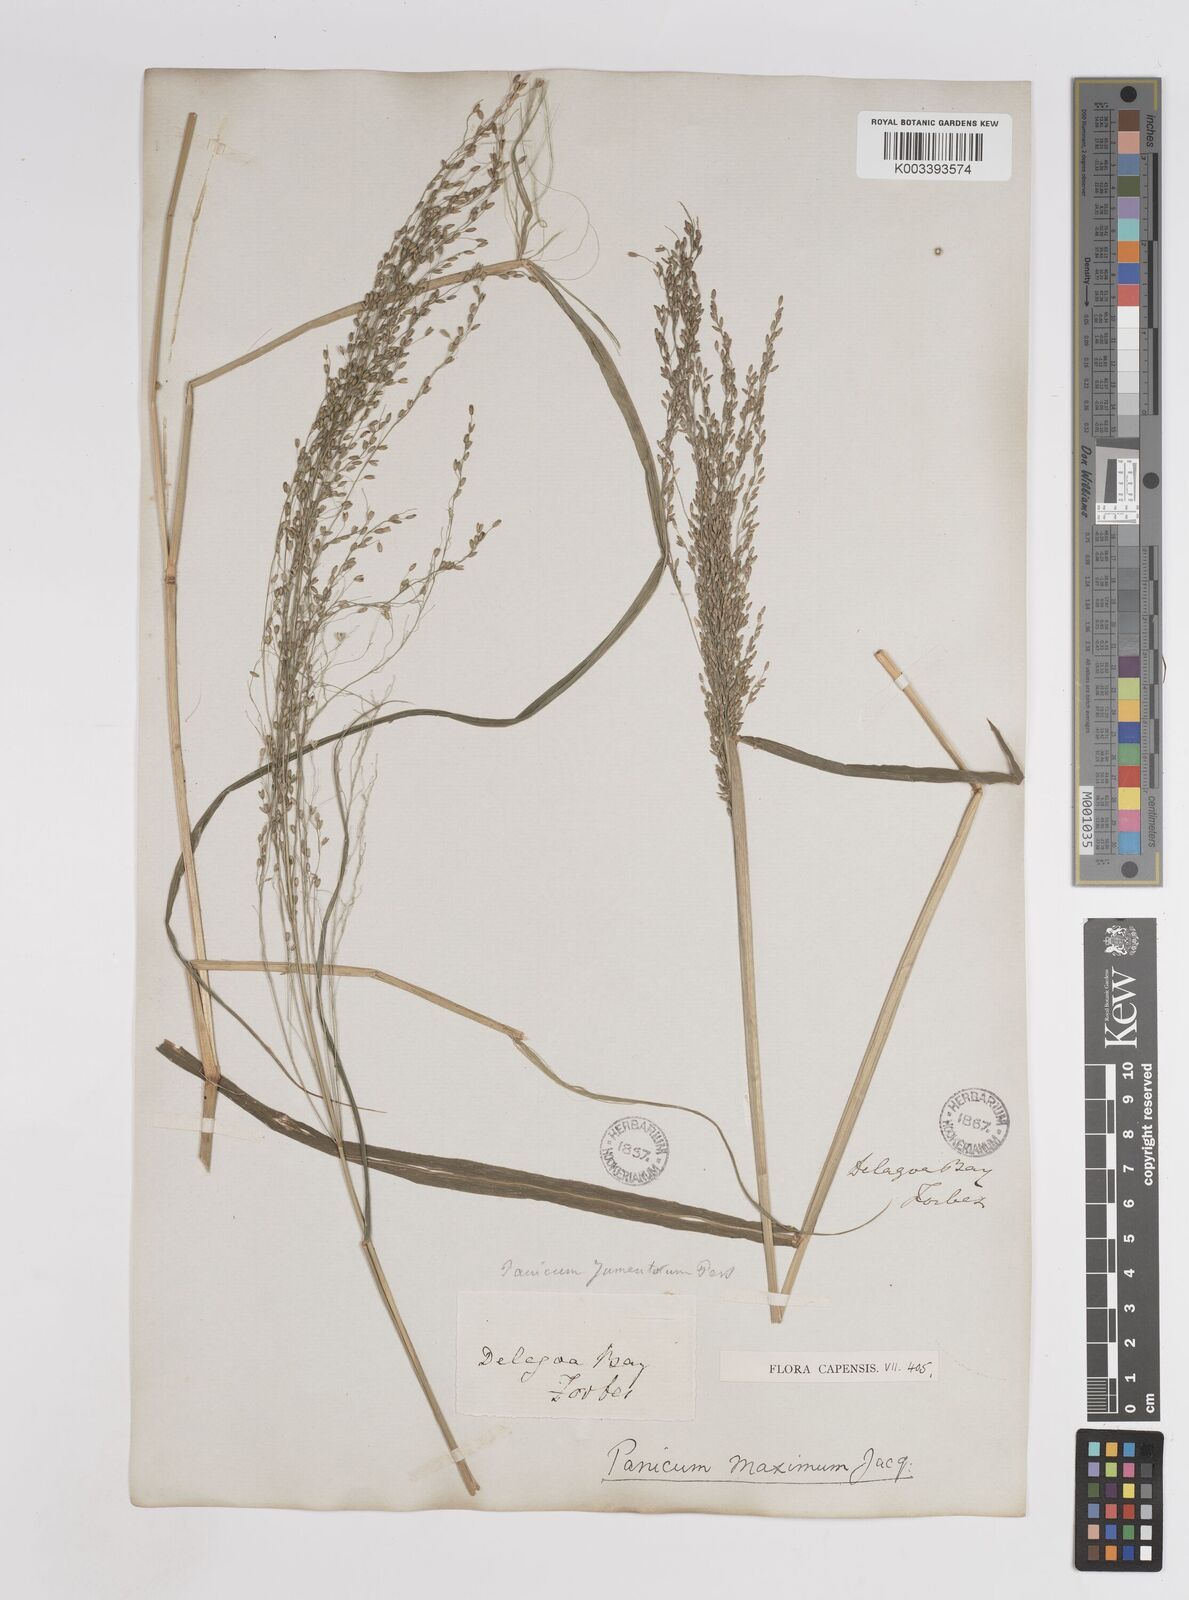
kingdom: Plantae
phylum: Tracheophyta
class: Liliopsida
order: Poales
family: Poaceae
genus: Megathyrsus
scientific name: Megathyrsus maximus
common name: Guineagrass
